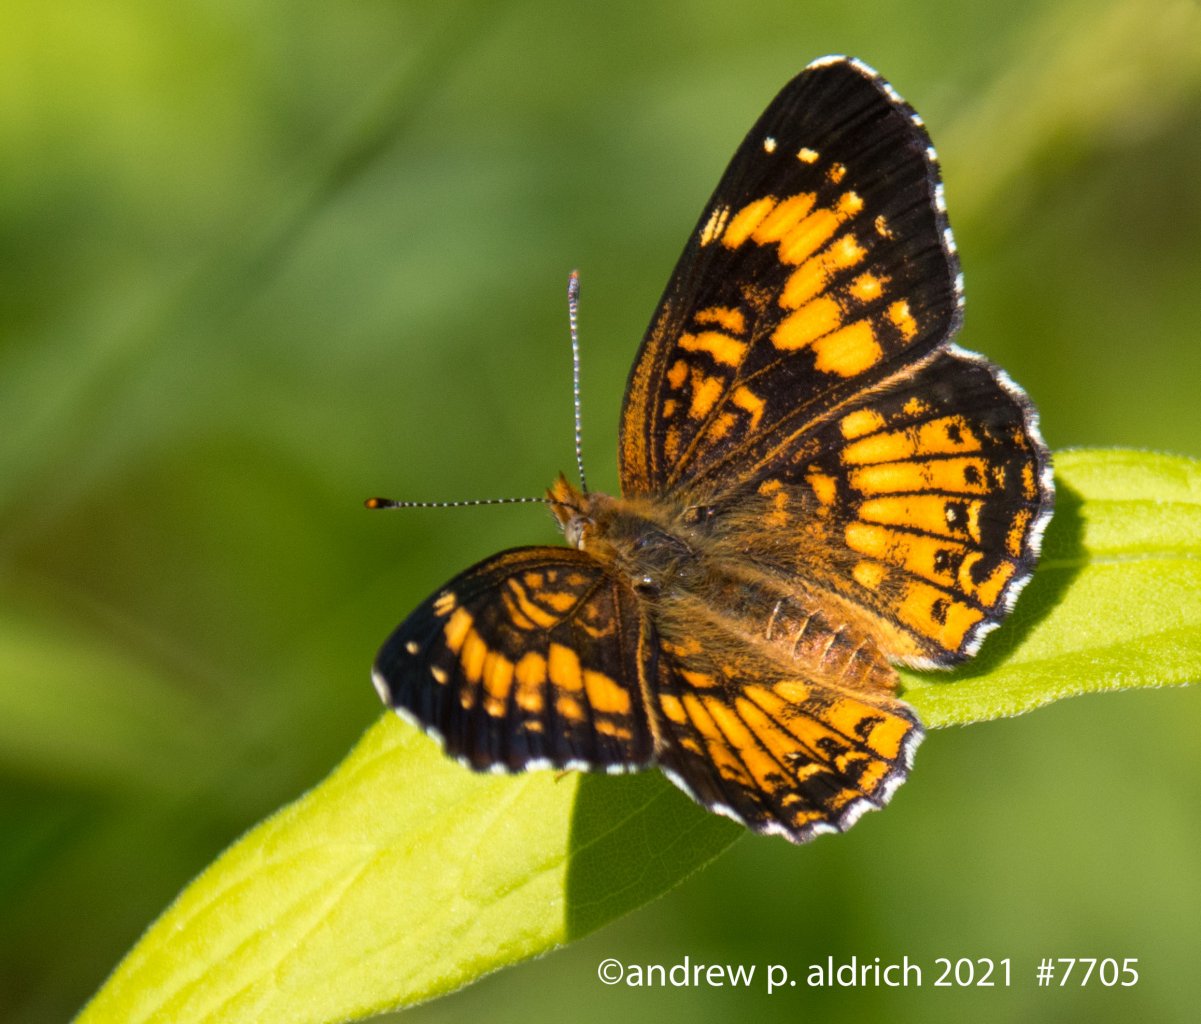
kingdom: Animalia
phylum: Arthropoda
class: Insecta
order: Lepidoptera
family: Nymphalidae
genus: Chlosyne
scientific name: Chlosyne harrisii
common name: Harris's Checkerspot
